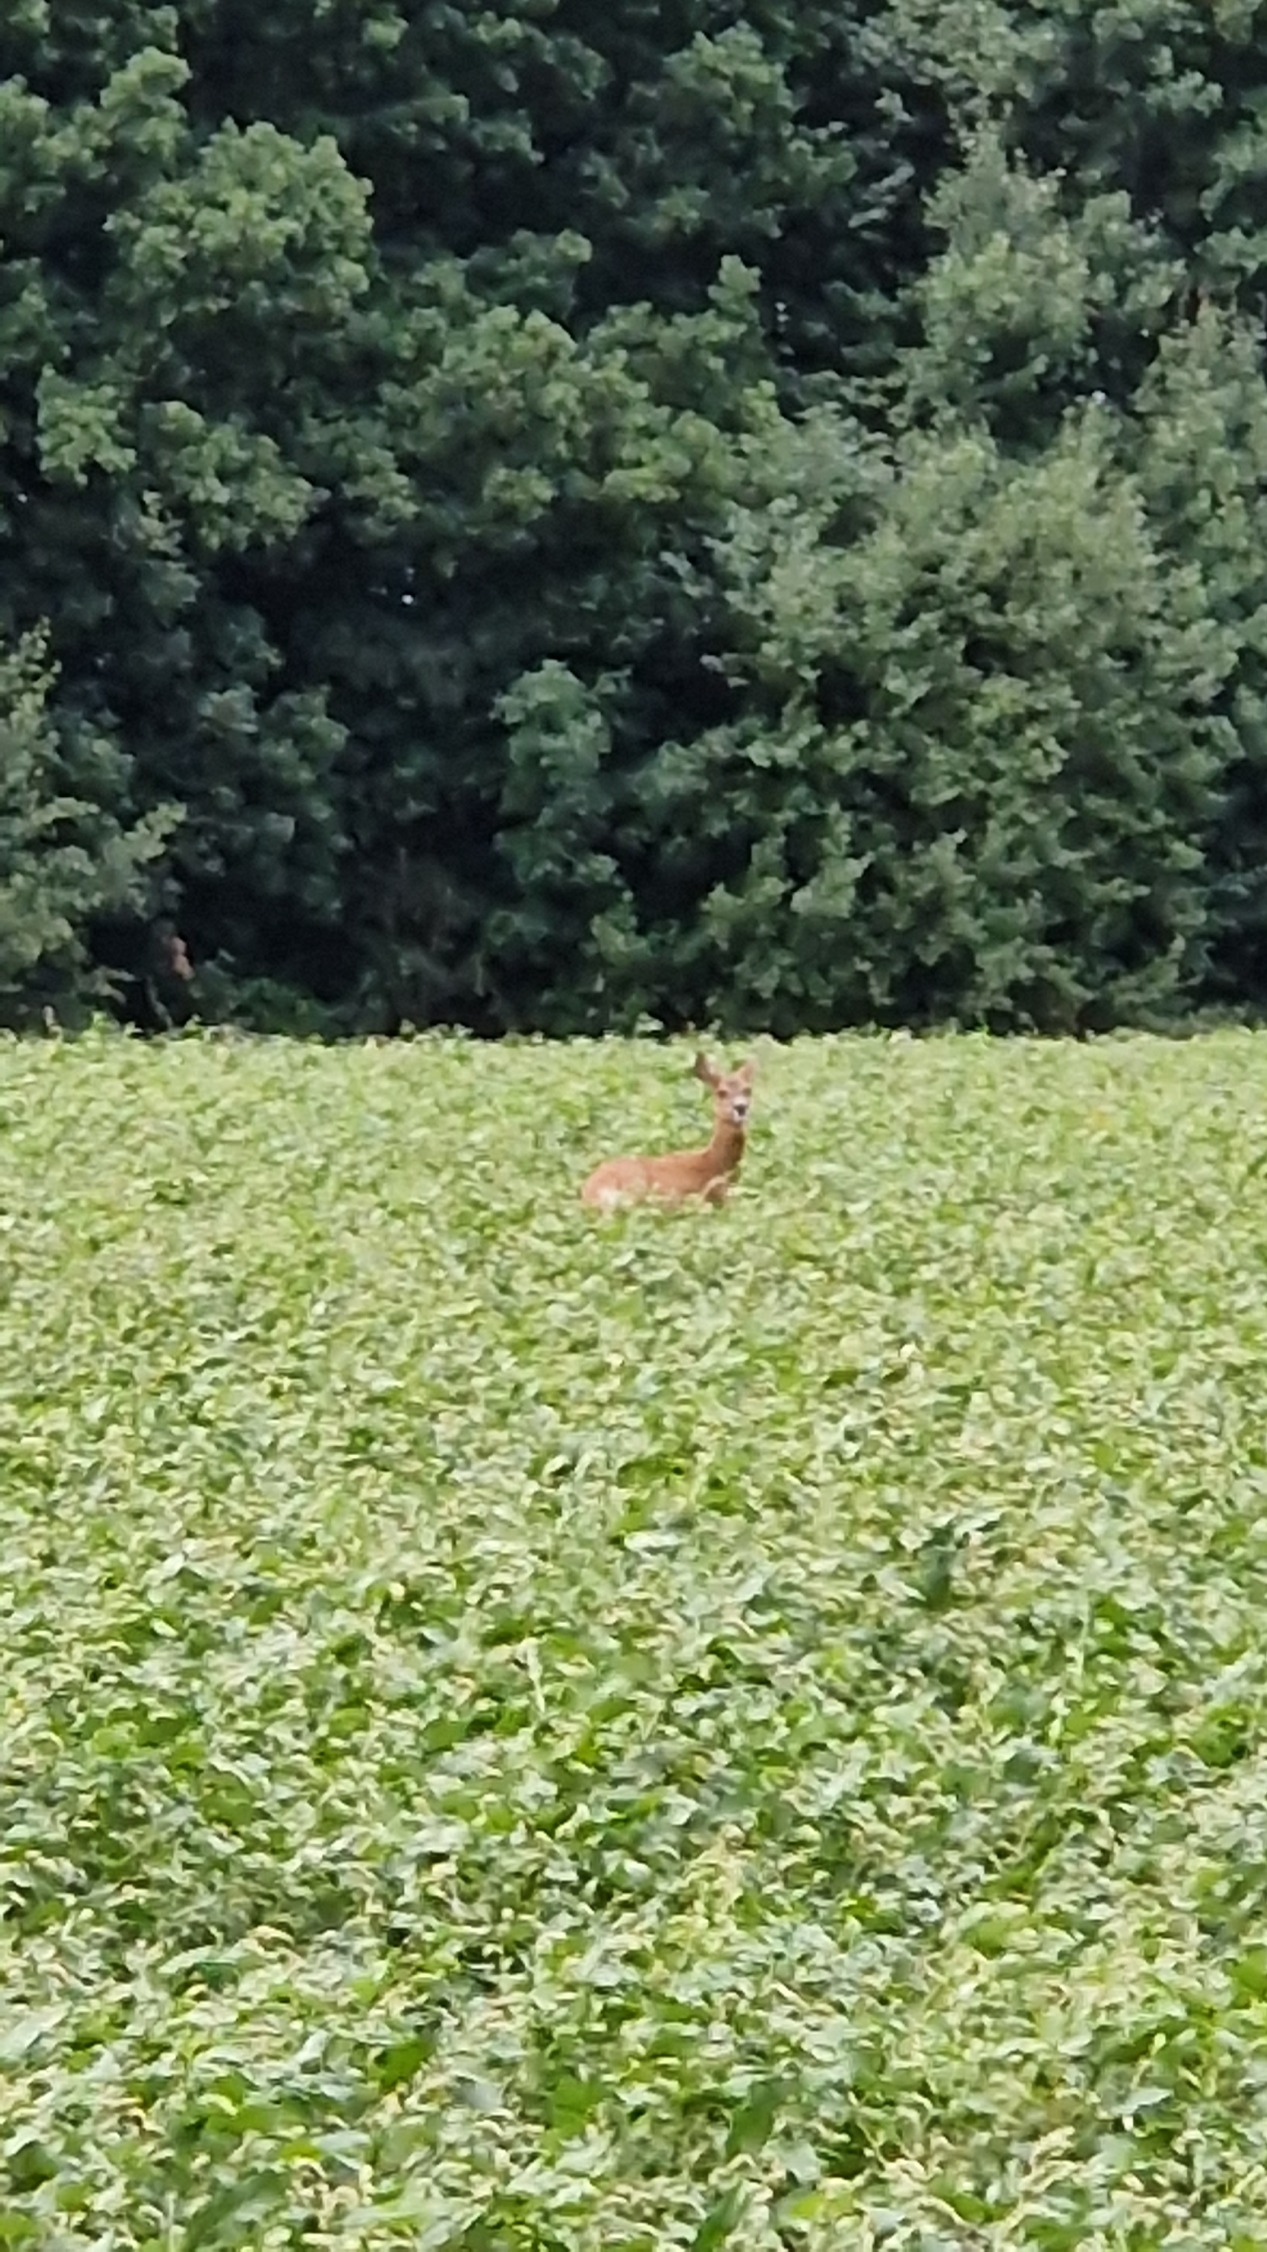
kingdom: Animalia
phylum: Chordata
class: Mammalia
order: Artiodactyla
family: Cervidae
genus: Capreolus
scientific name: Capreolus capreolus
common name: Rådyr
